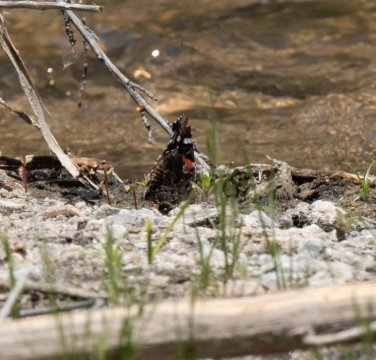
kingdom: Animalia
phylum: Arthropoda
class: Insecta
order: Lepidoptera
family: Nymphalidae
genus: Vanessa
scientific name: Vanessa atalanta
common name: Red Admiral
